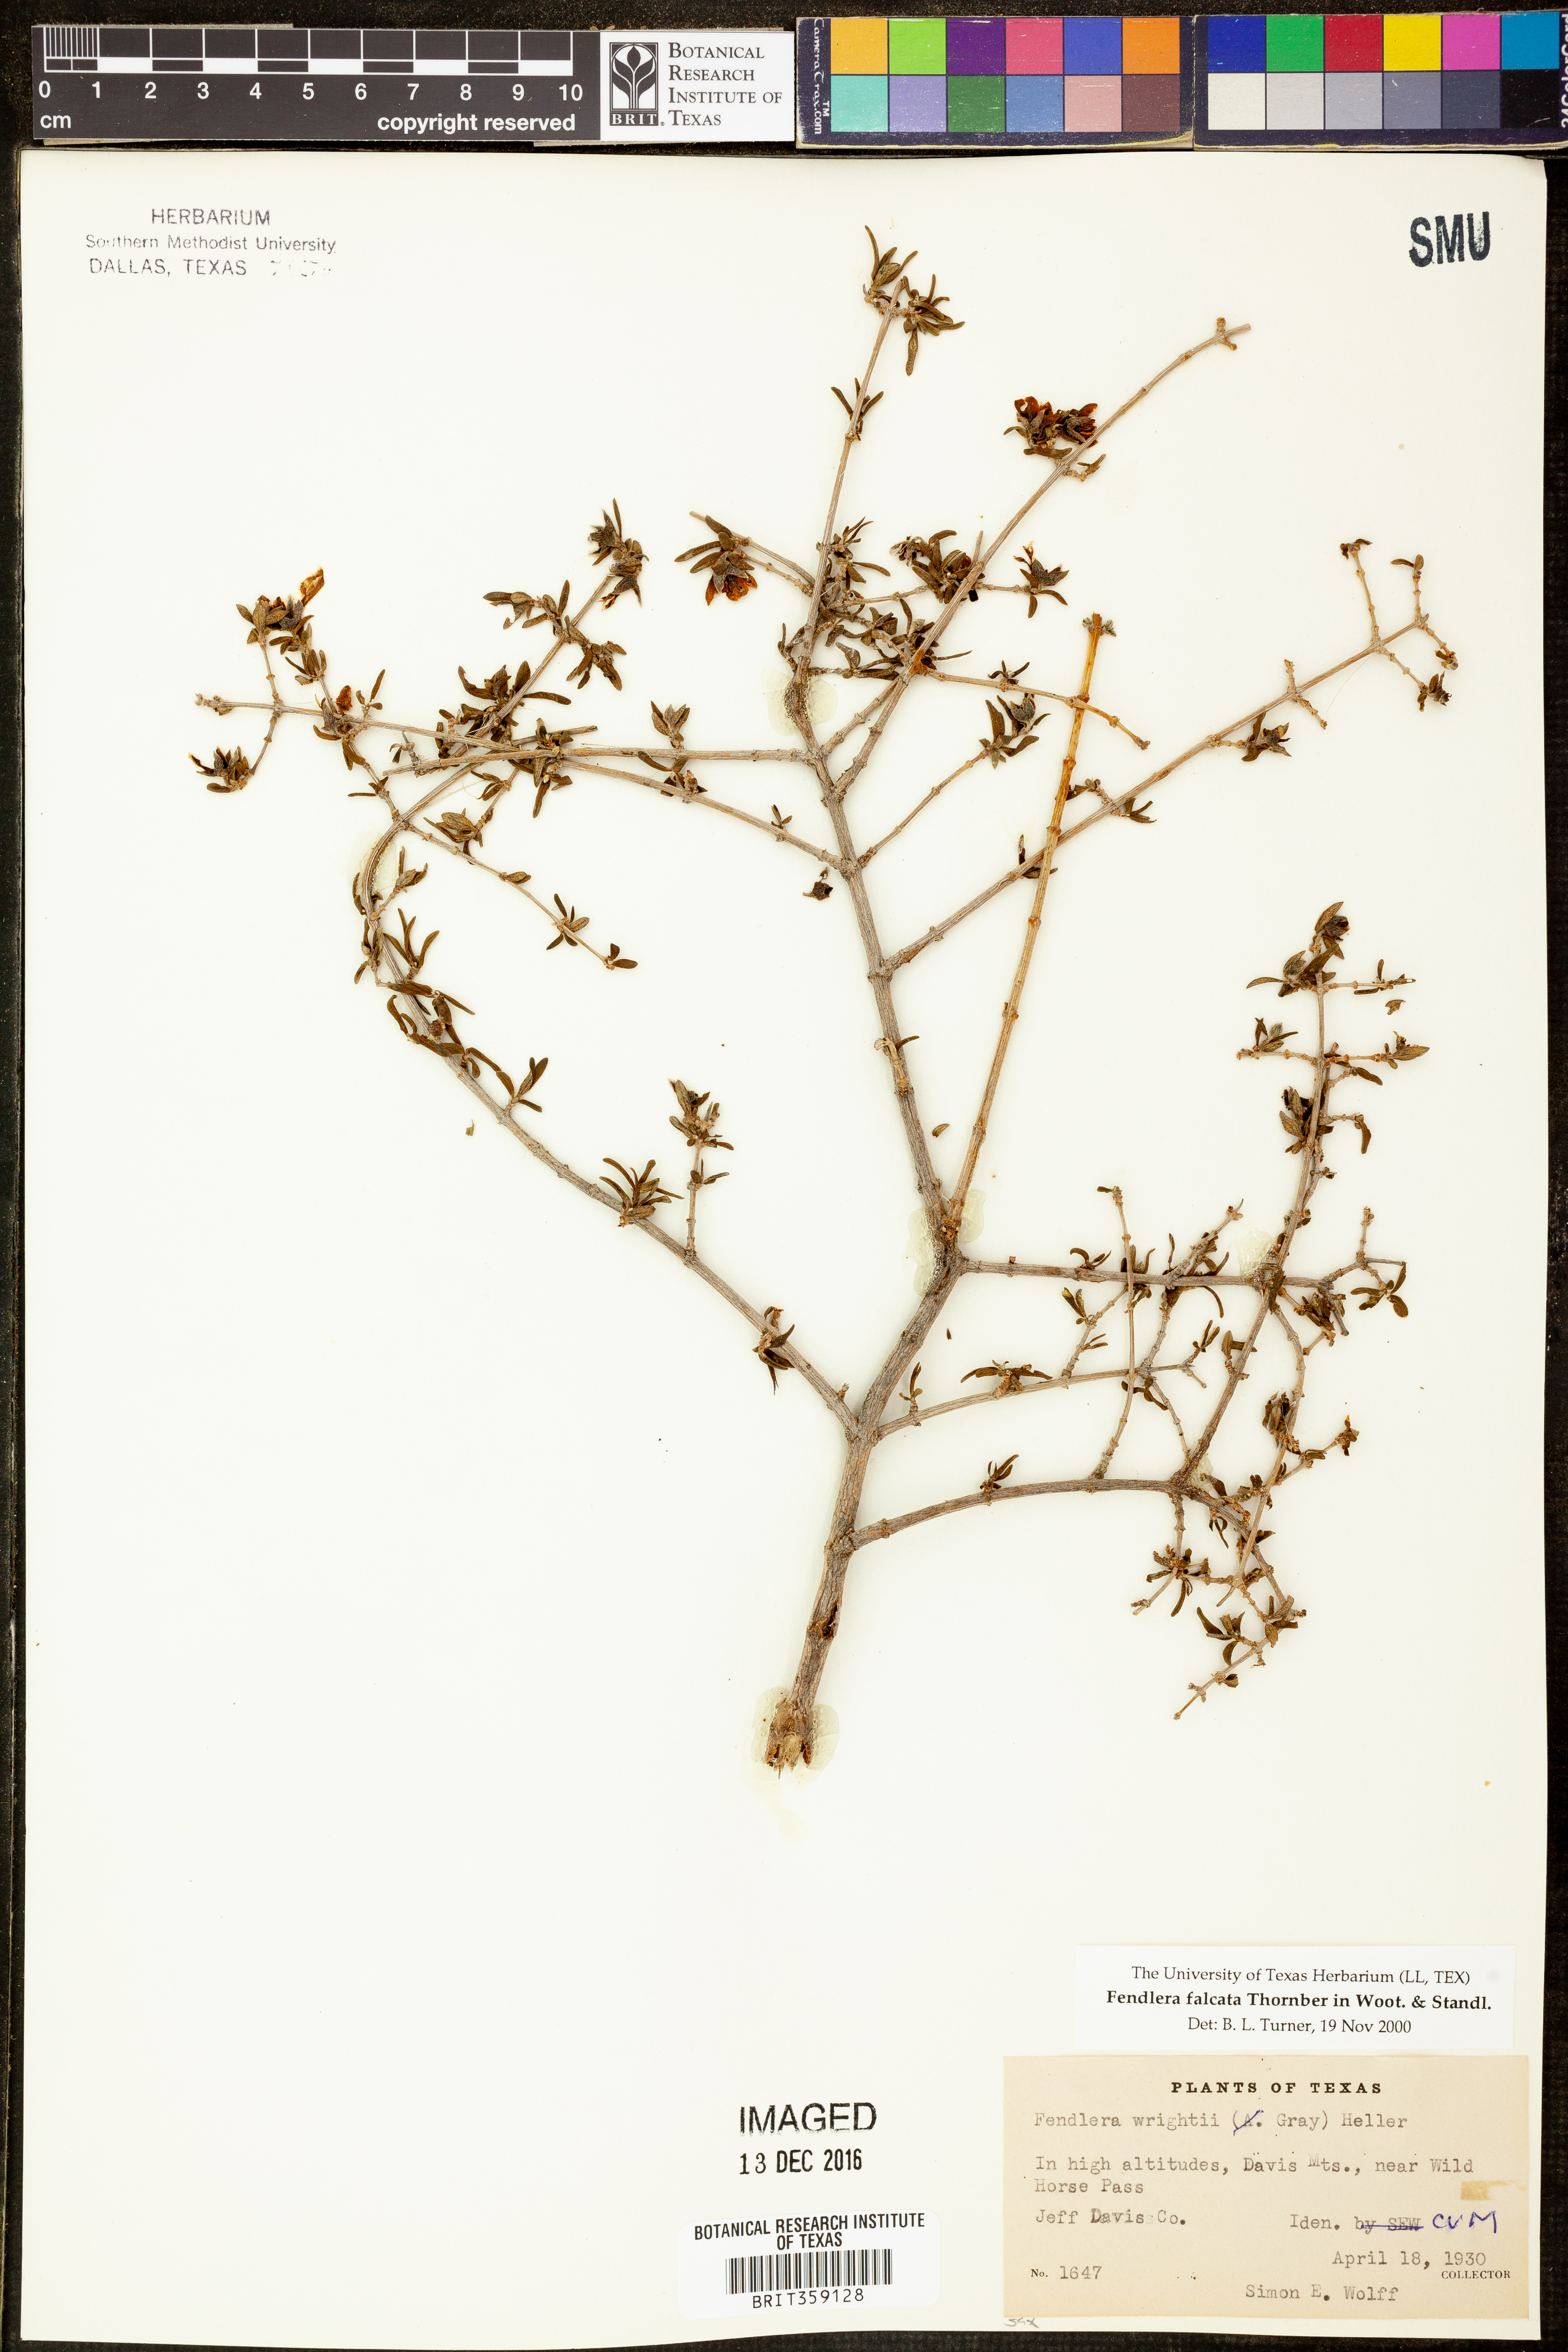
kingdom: Plantae
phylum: Tracheophyta
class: Magnoliopsida
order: Cornales
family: Hydrangeaceae
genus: Fendlera
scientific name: Fendlera rupicola
